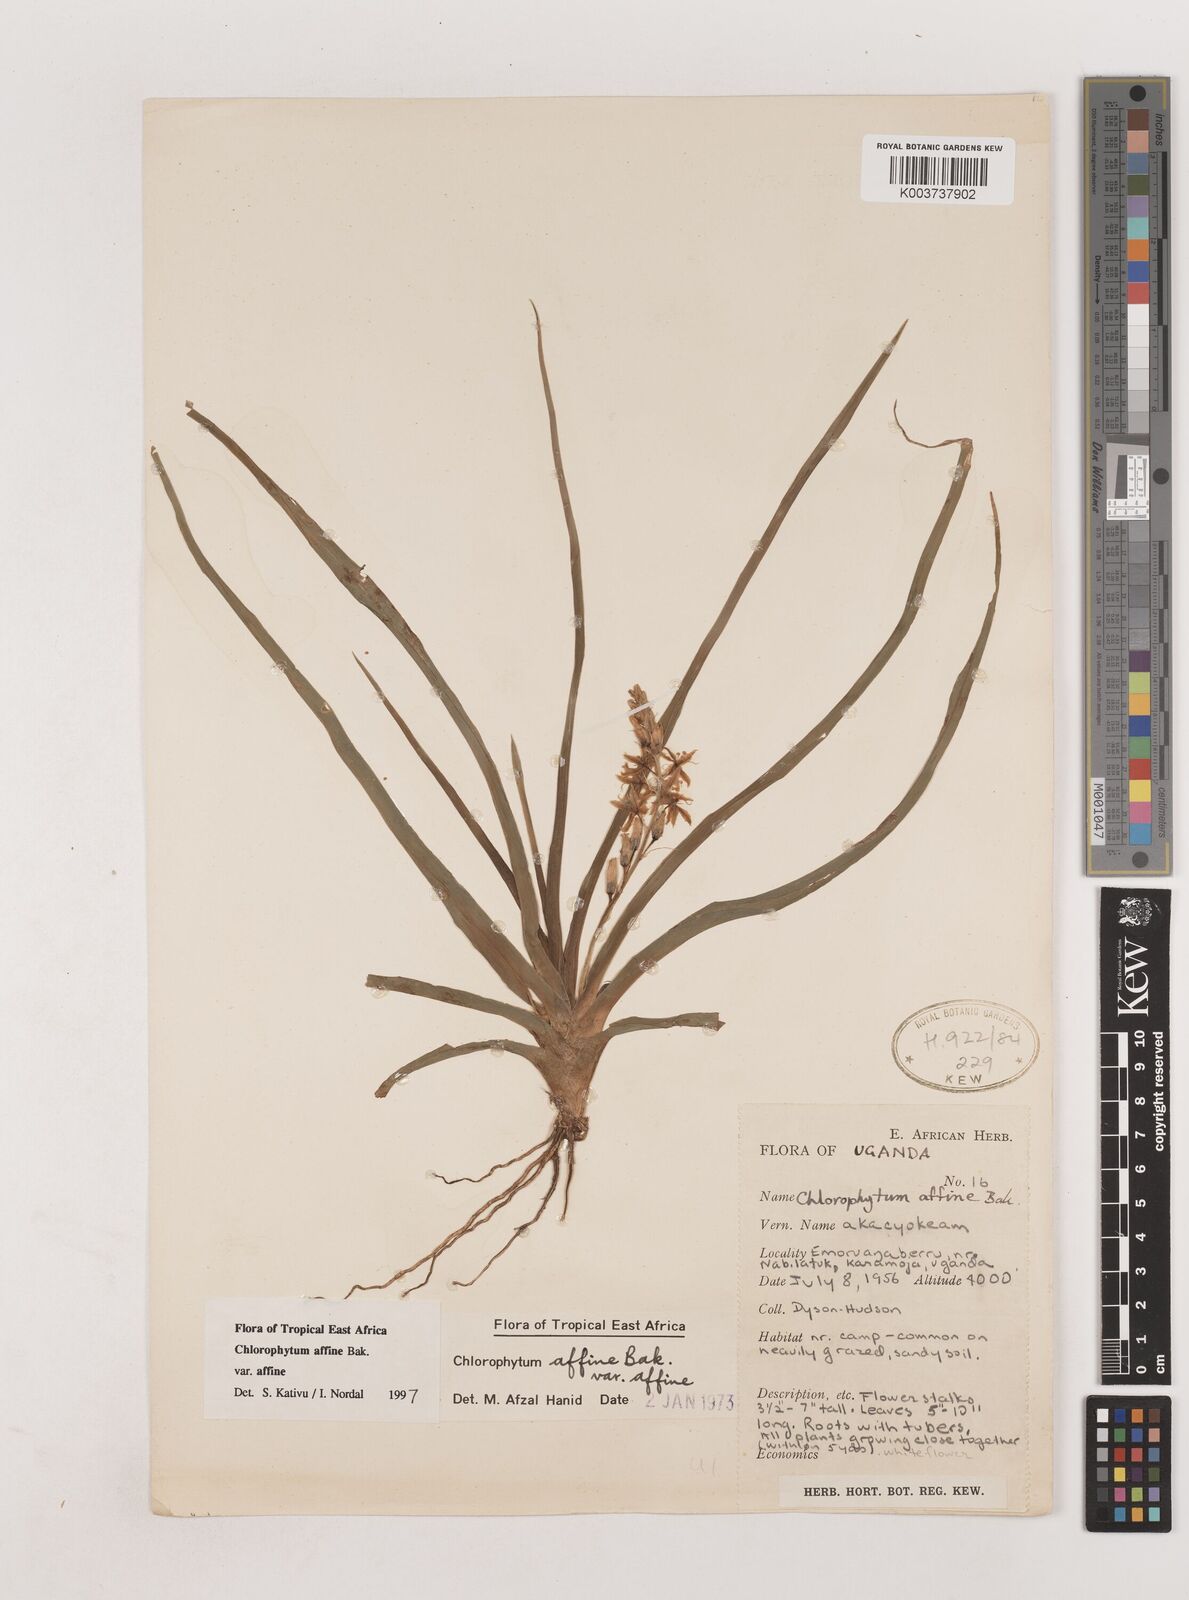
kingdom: Plantae
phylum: Tracheophyta
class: Liliopsida
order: Asparagales
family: Asparagaceae
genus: Chlorophytum
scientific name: Chlorophytum affine
